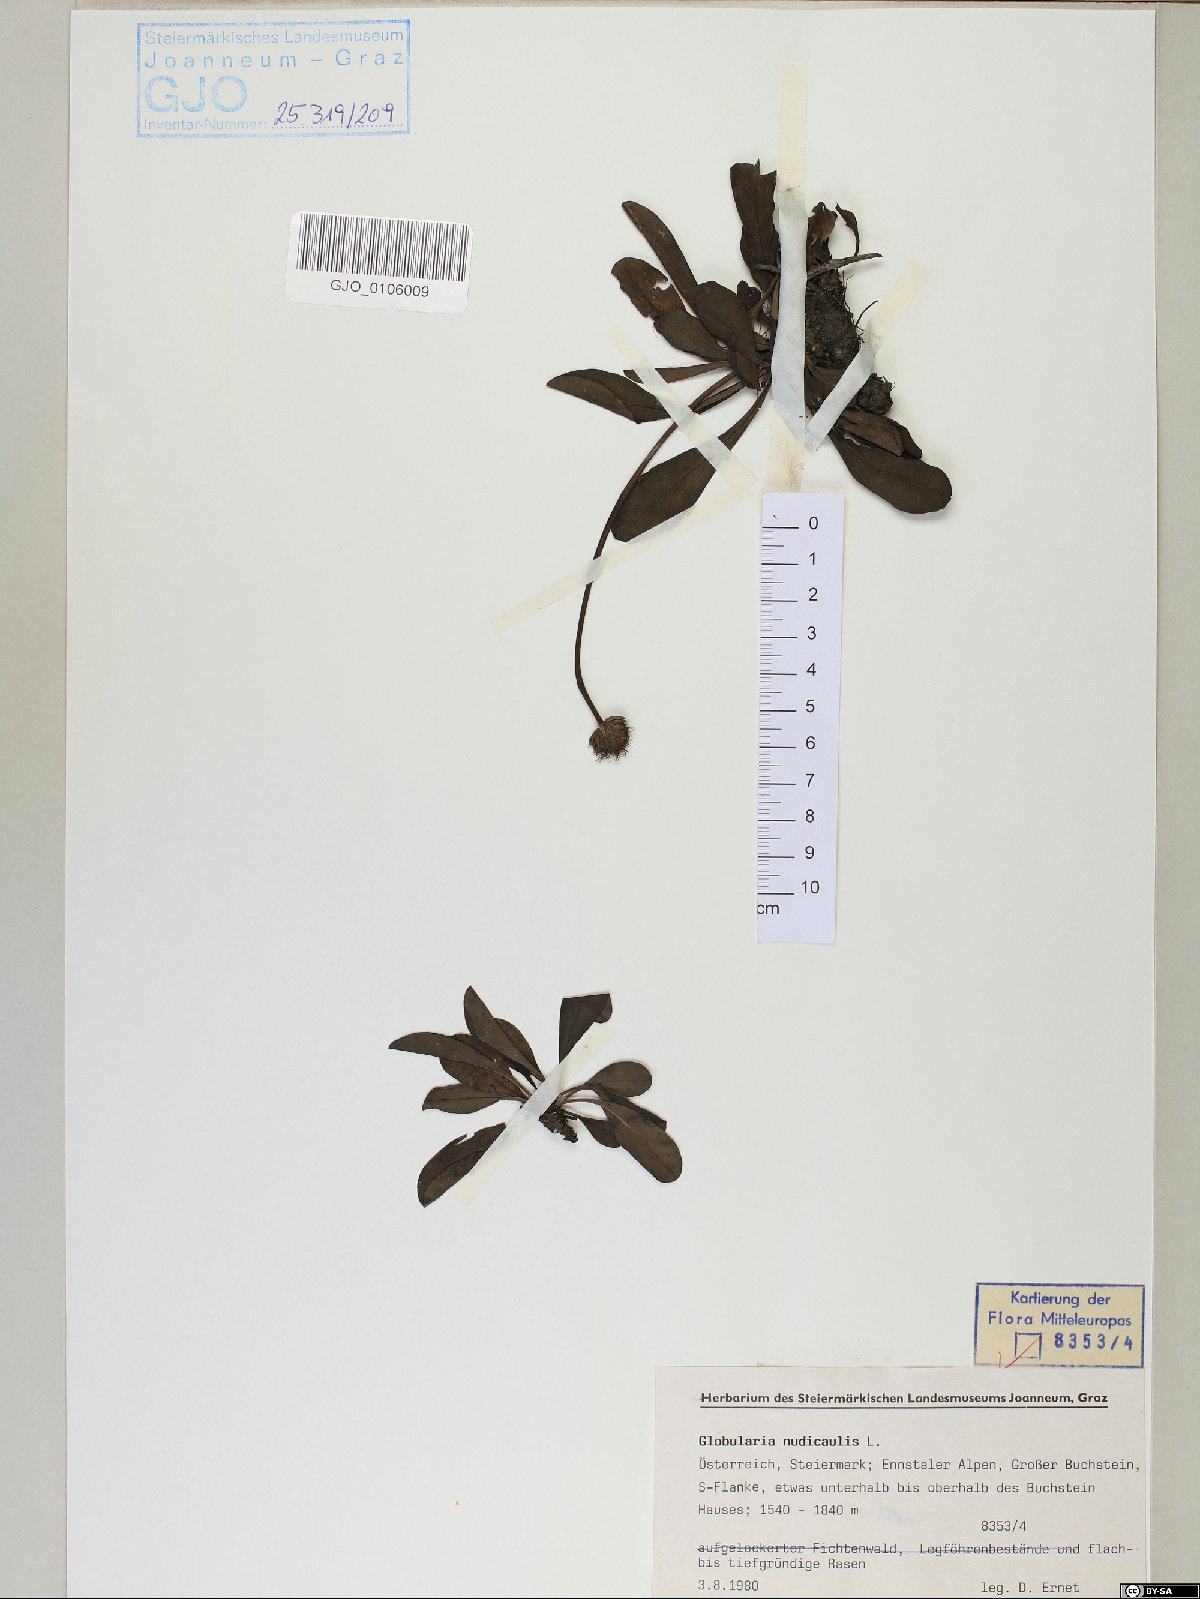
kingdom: Plantae
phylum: Tracheophyta
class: Magnoliopsida
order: Lamiales
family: Plantaginaceae
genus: Globularia
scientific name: Globularia nudicaulis
